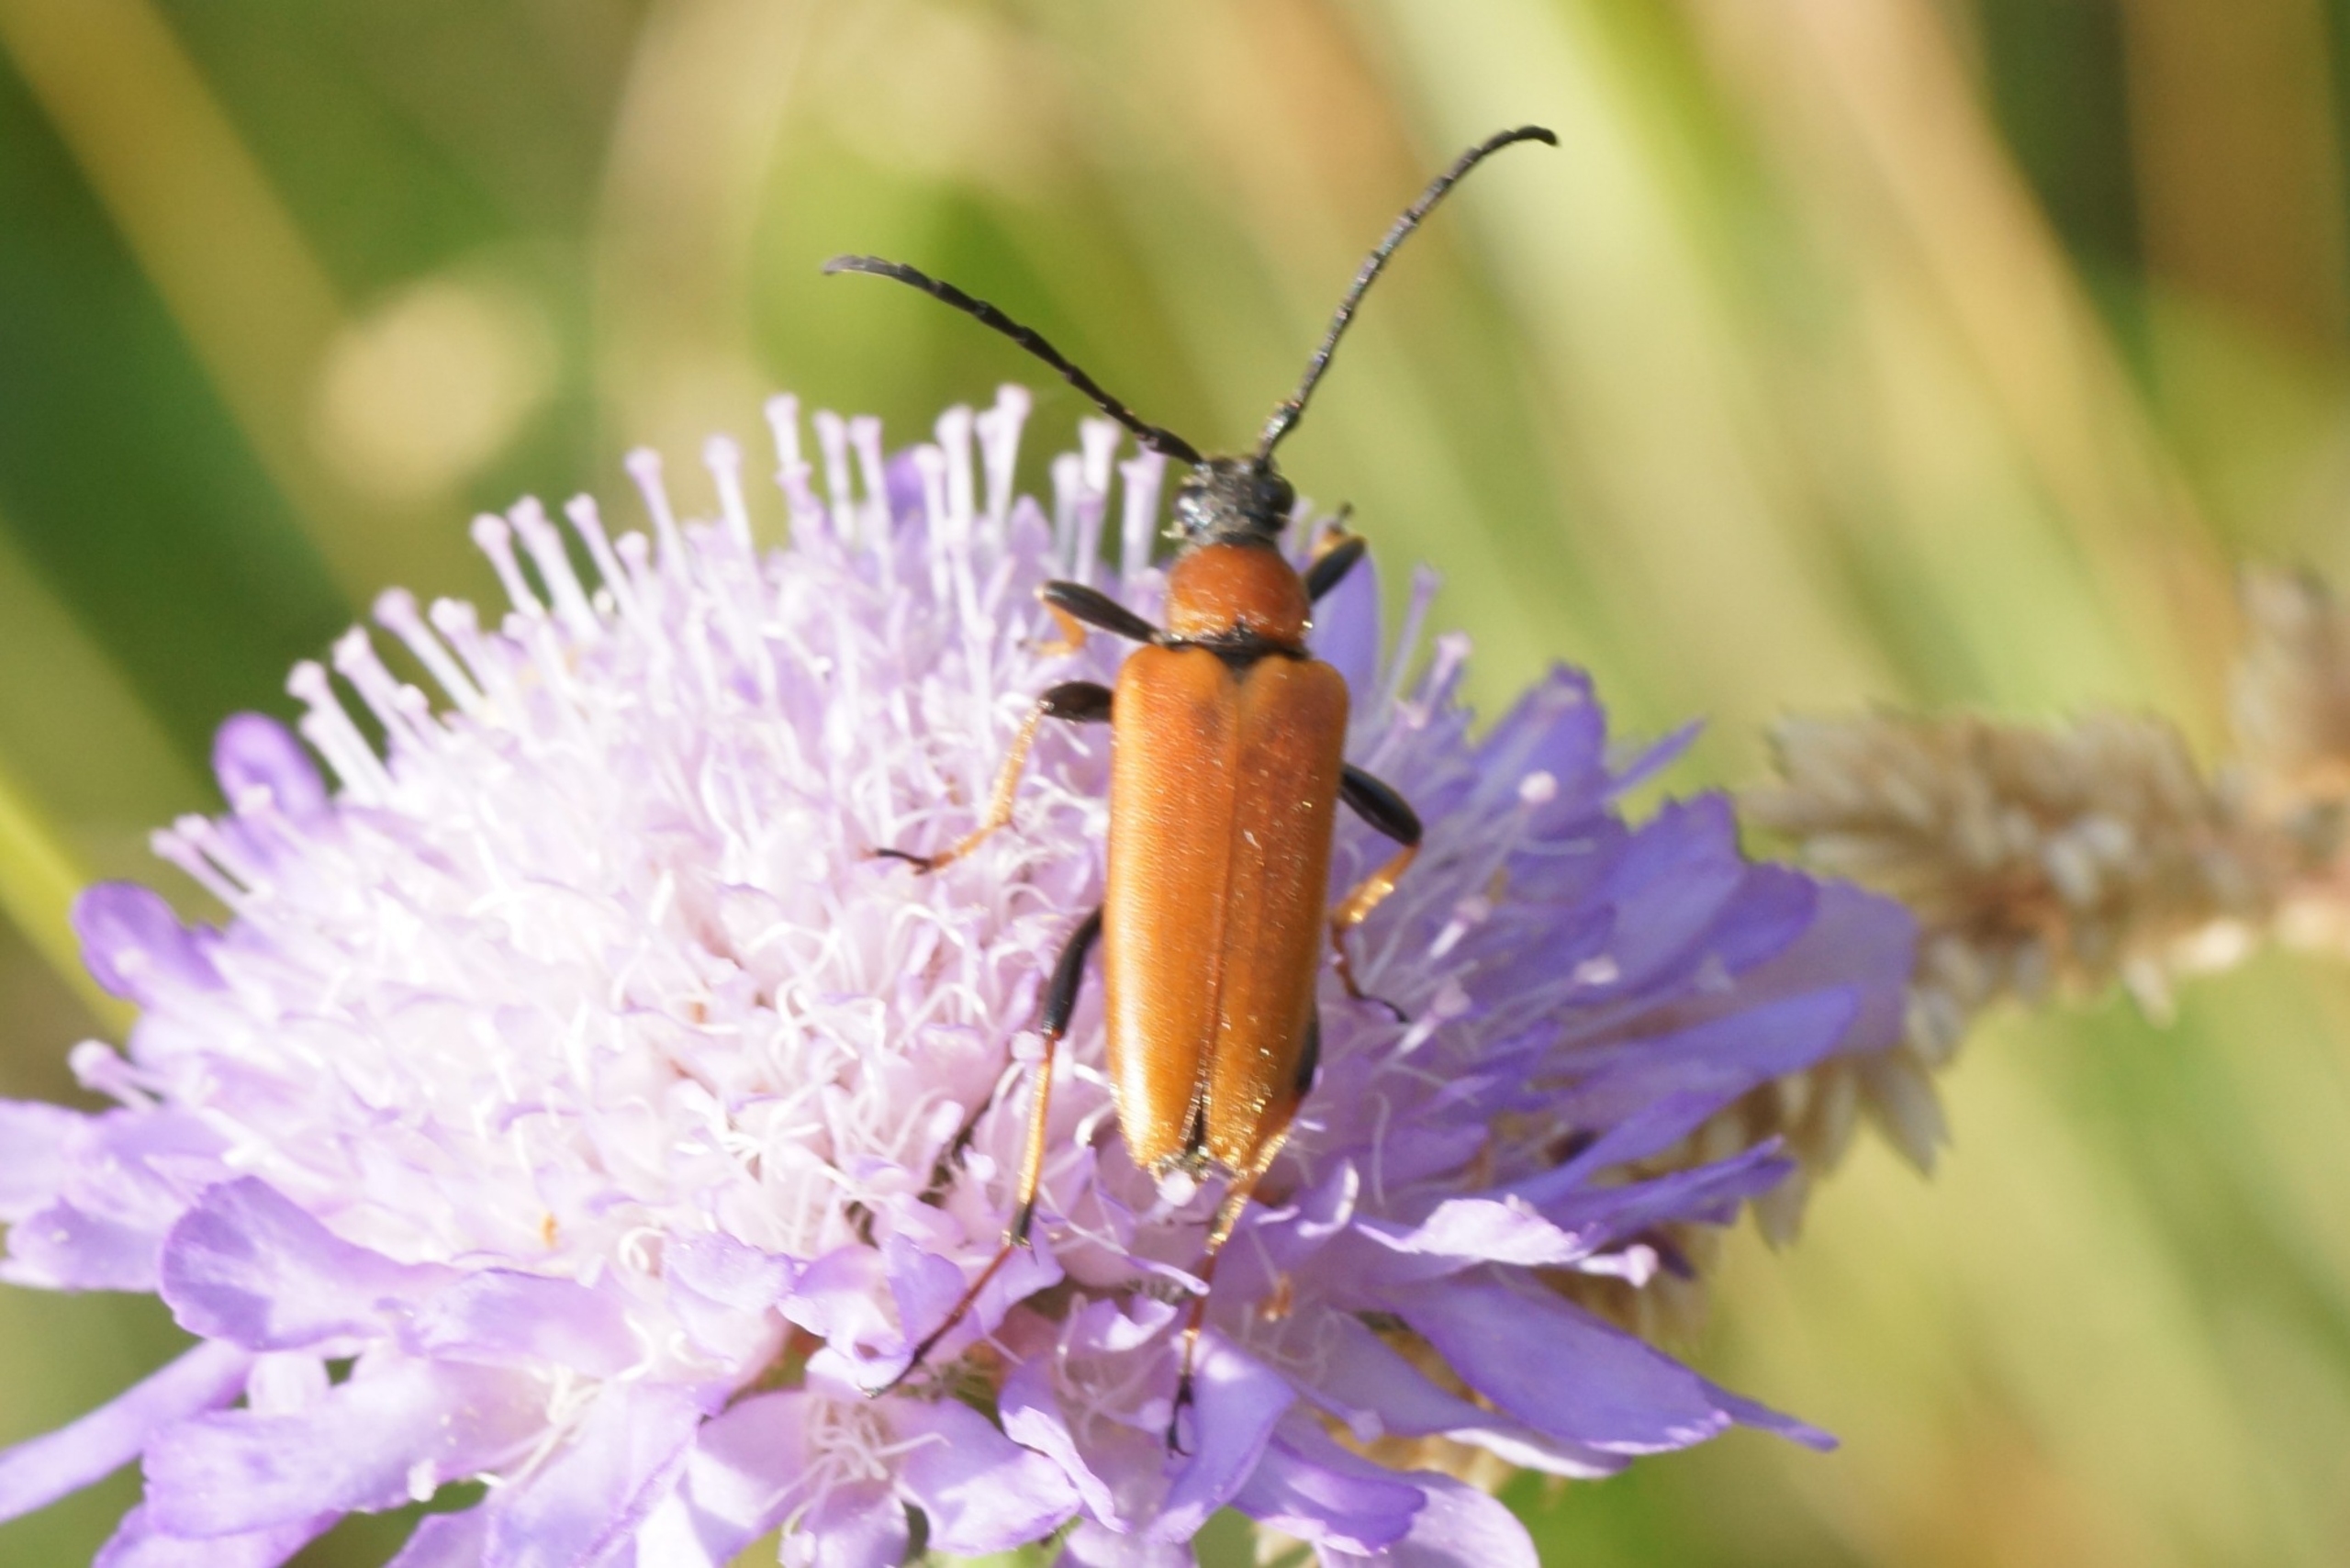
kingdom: Animalia
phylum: Arthropoda
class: Insecta
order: Coleoptera
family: Cerambycidae
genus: Stictoleptura
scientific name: Stictoleptura rubra
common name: Rød blomsterbuk
